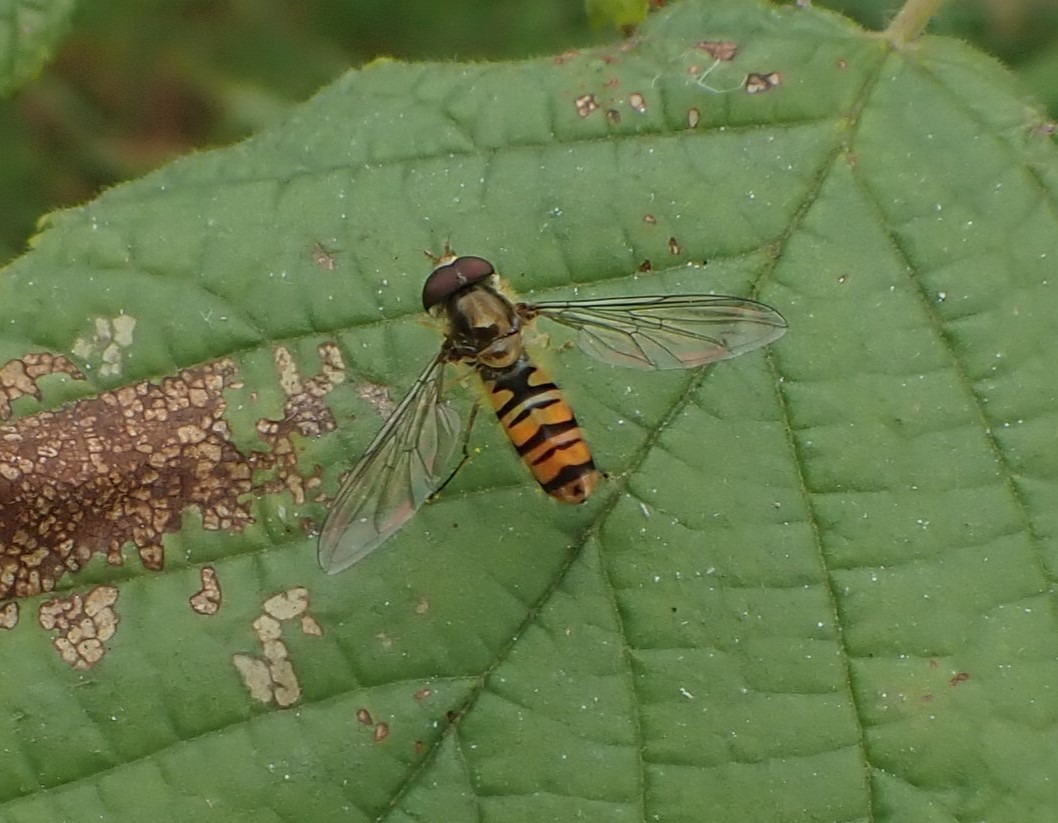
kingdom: Animalia
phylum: Arthropoda
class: Insecta
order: Diptera
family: Syrphidae
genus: Episyrphus
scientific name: Episyrphus balteatus
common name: Dobbeltbåndet svirreflue
